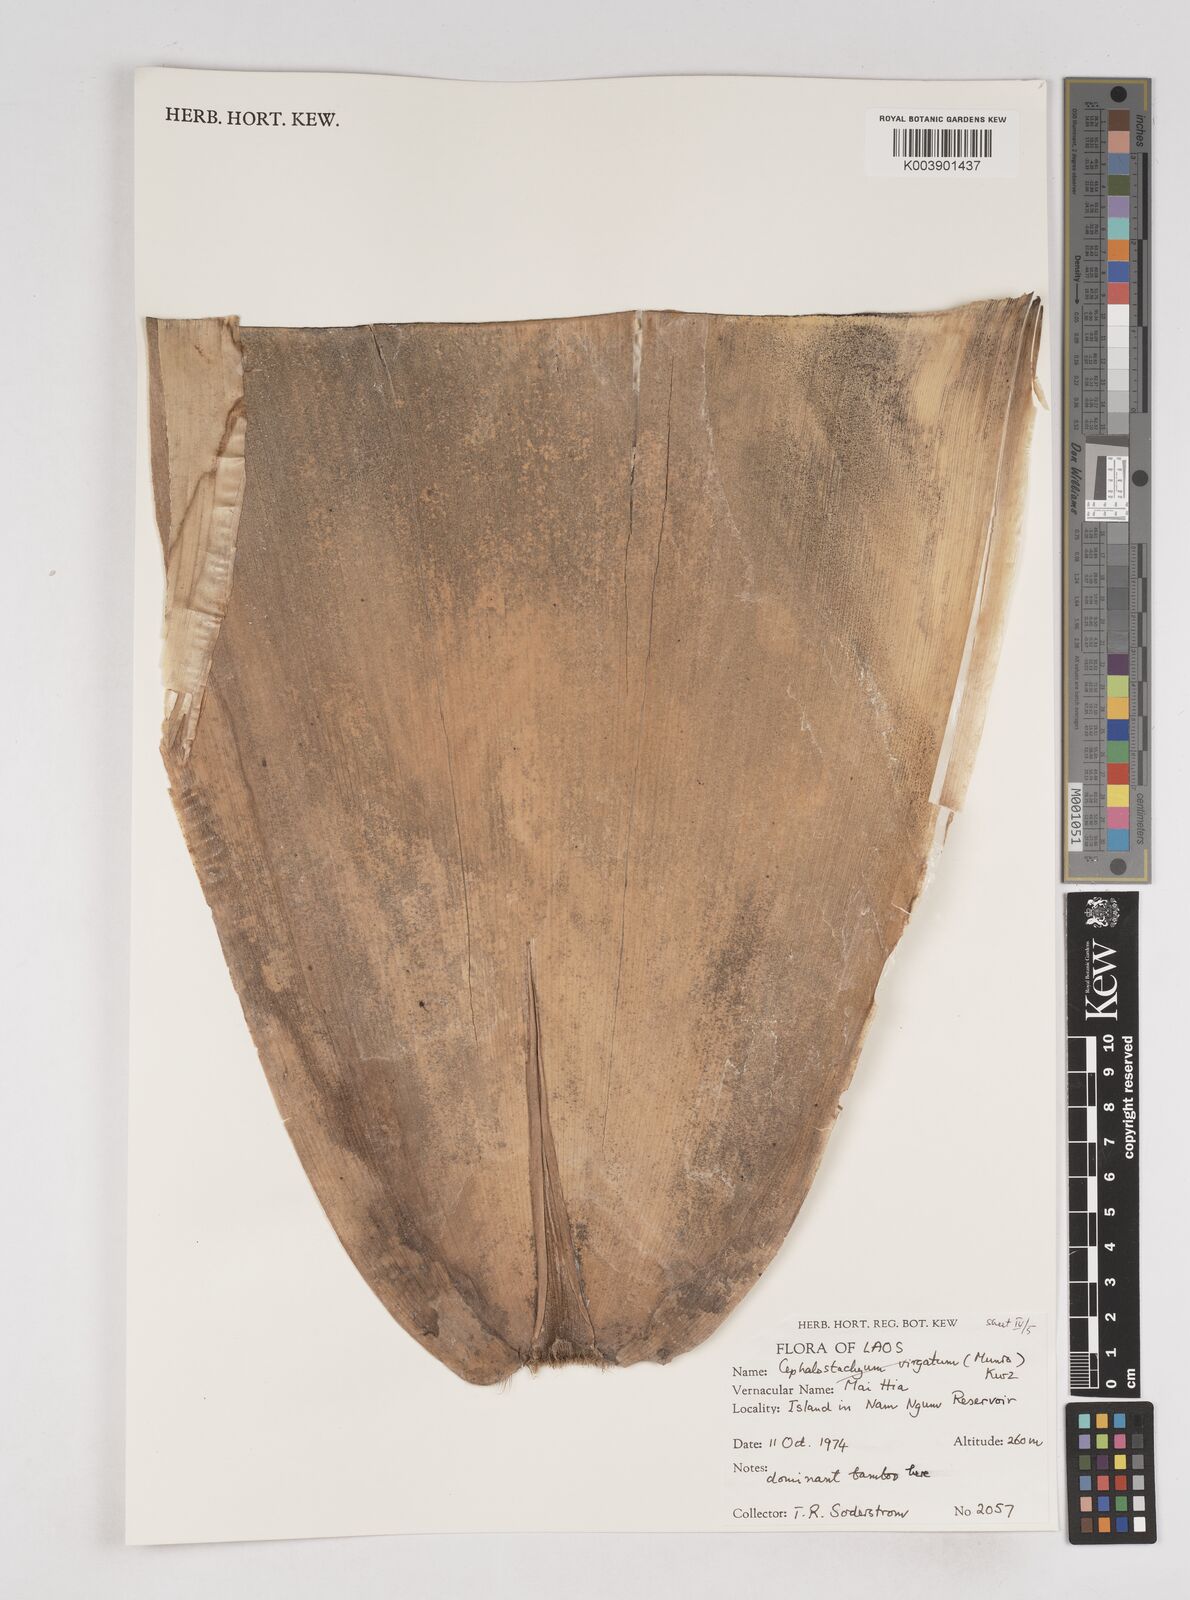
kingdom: Plantae
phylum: Tracheophyta
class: Liliopsida
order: Poales
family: Poaceae
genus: Schizostachyum
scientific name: Schizostachyum
